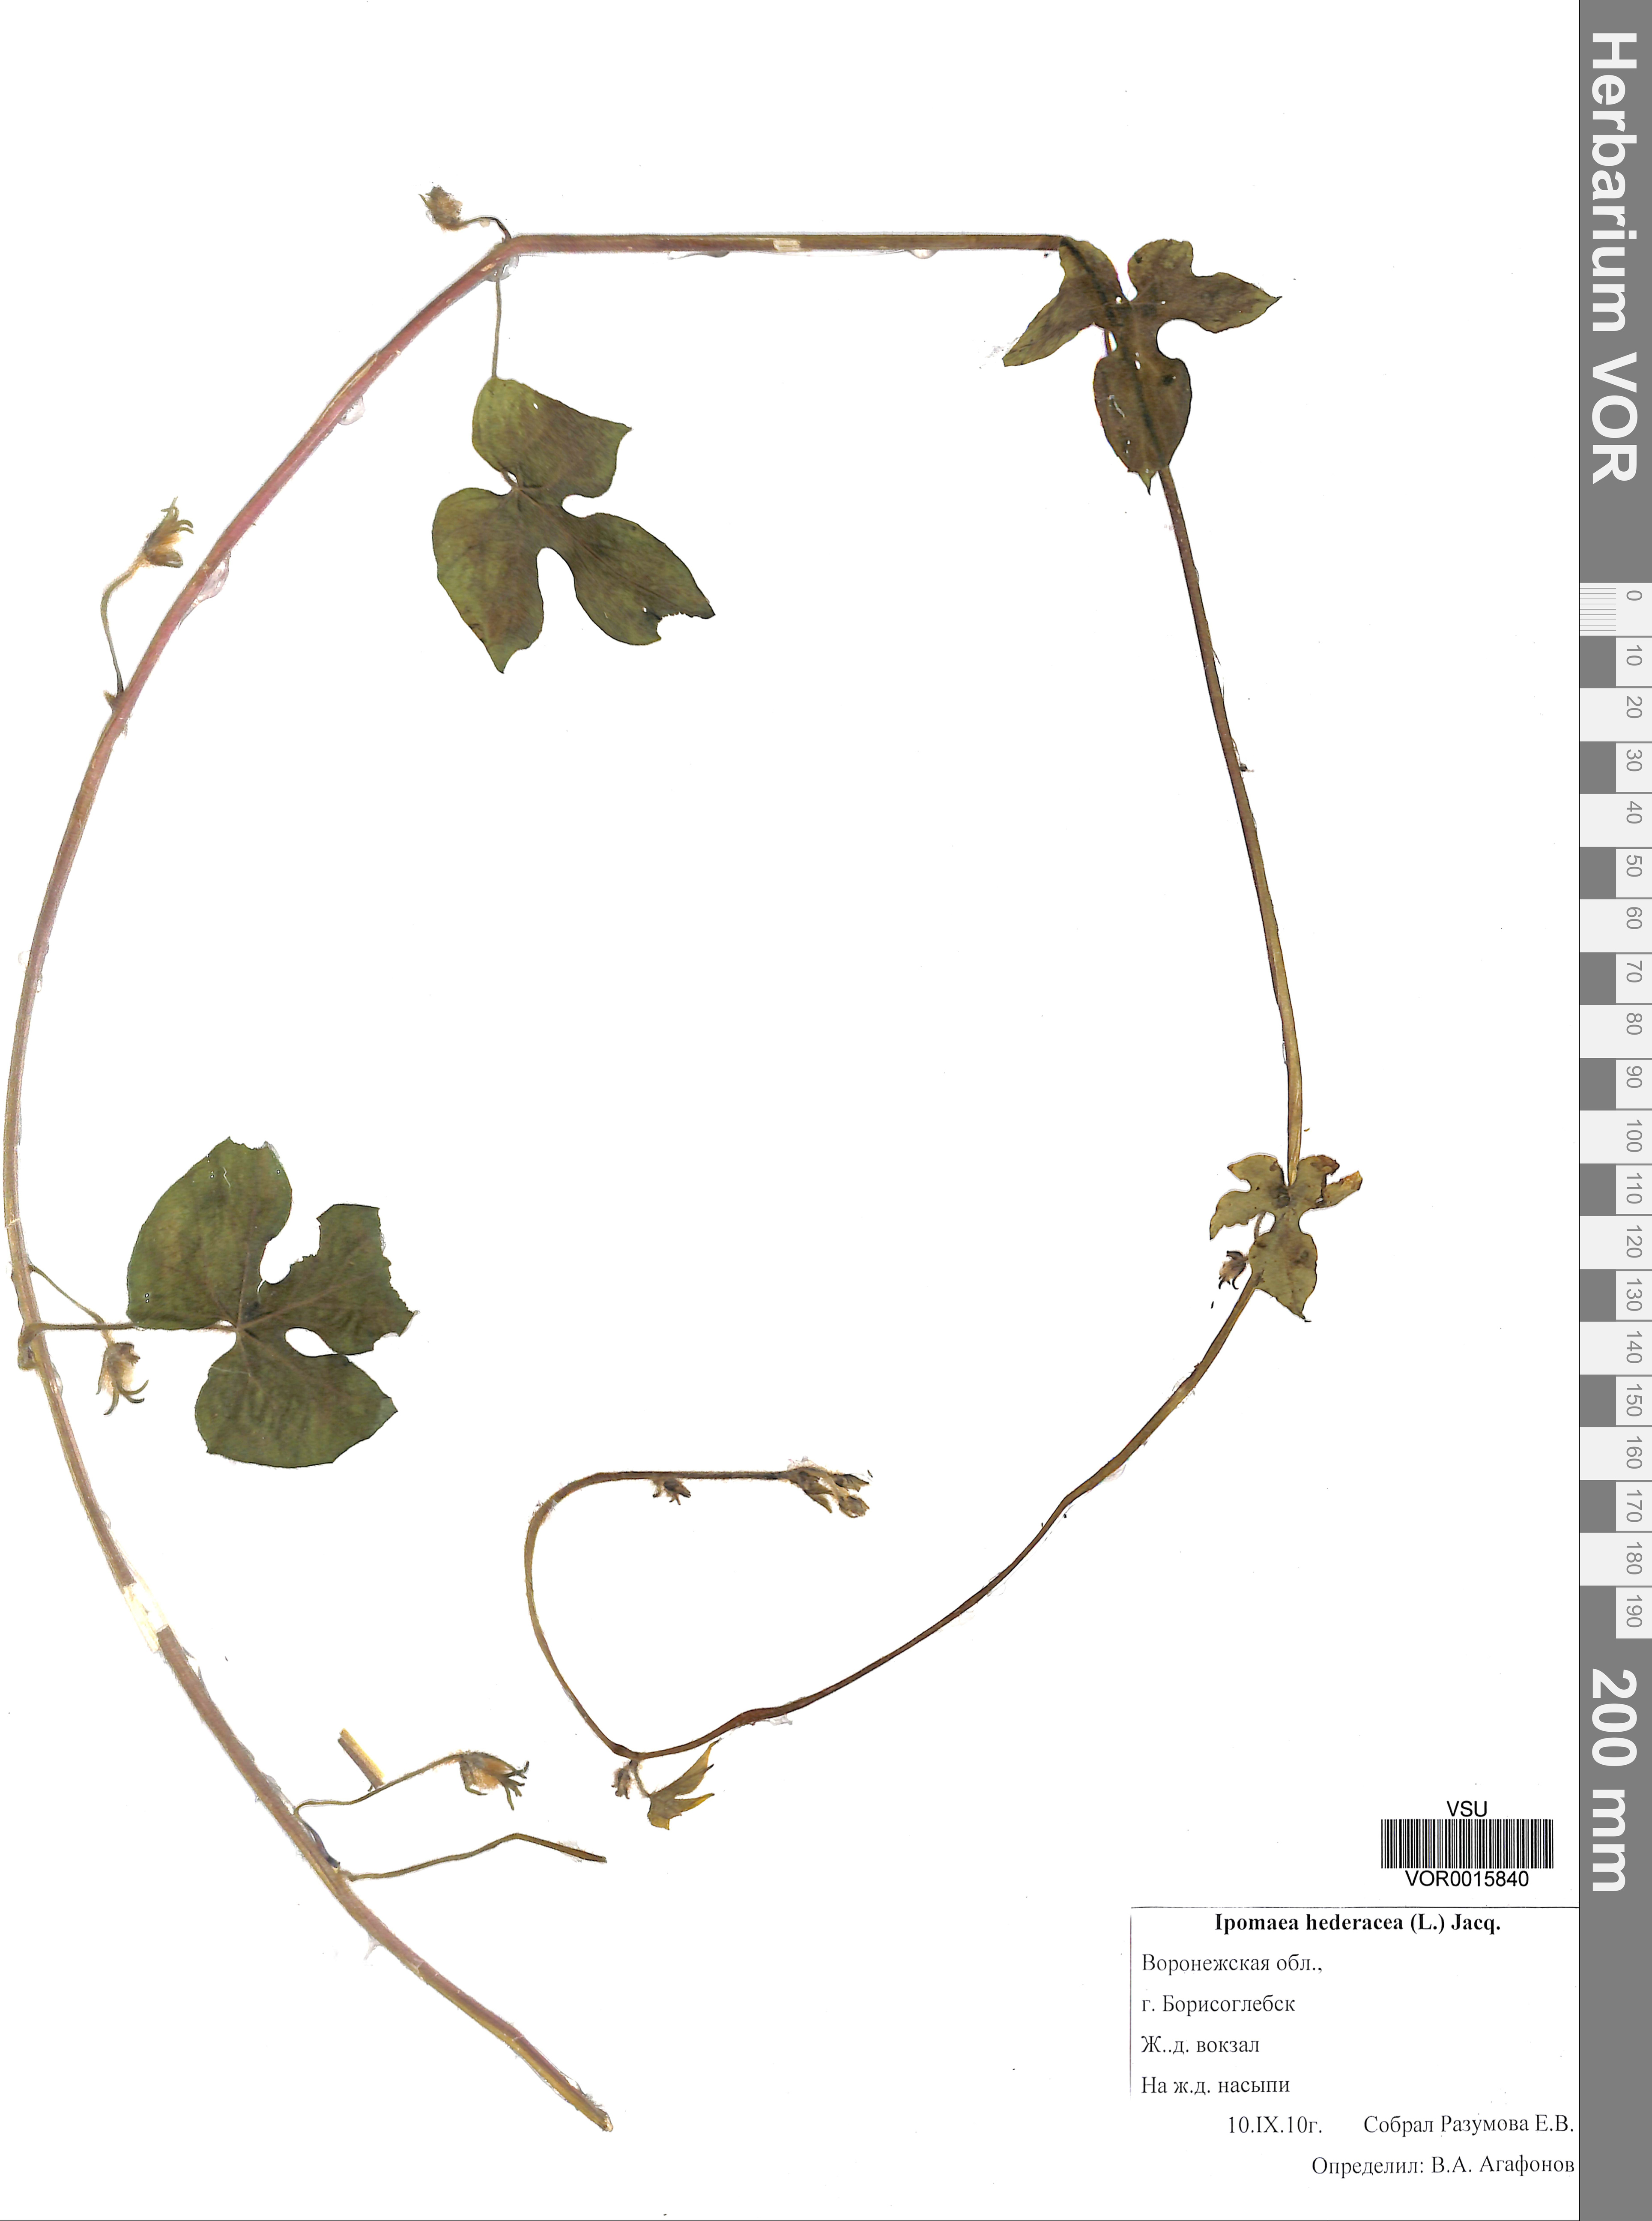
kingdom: Plantae
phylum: Tracheophyta
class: Magnoliopsida
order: Solanales
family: Convolvulaceae
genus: Ipomoea
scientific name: Ipomoea hederacea
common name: Ivy-leaved morning-glory
